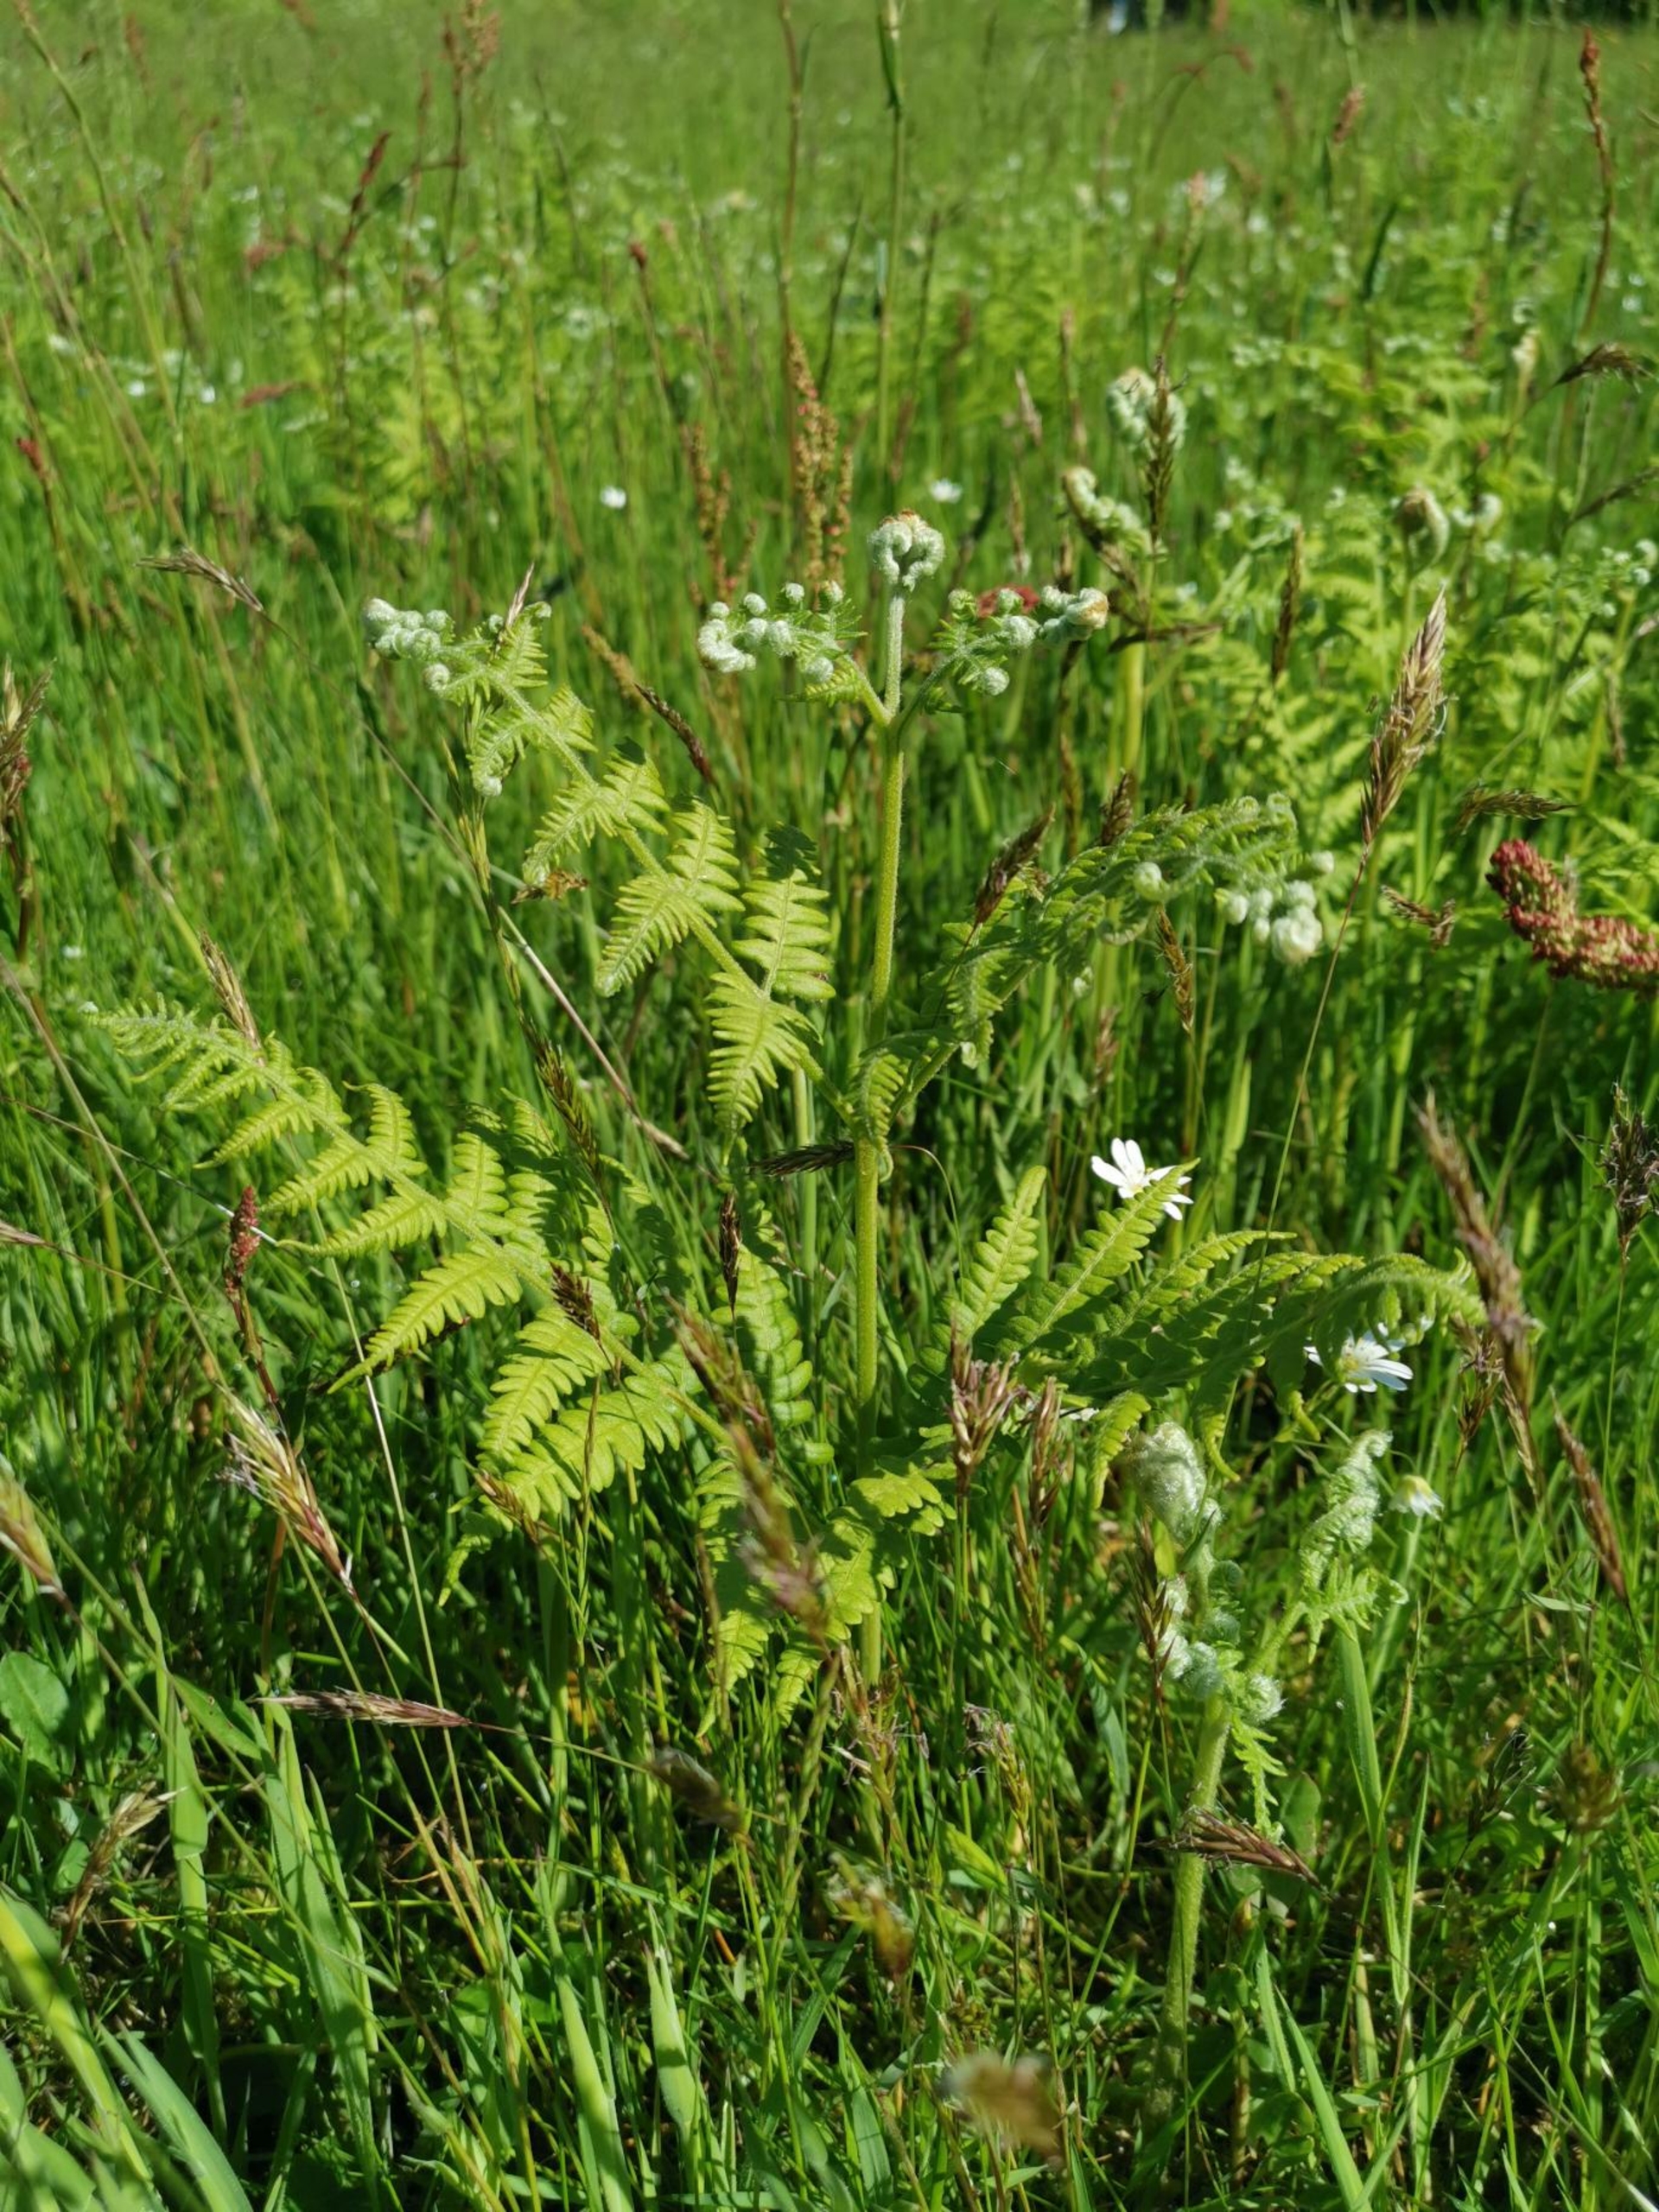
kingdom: Plantae
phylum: Tracheophyta
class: Polypodiopsida
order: Polypodiales
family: Dennstaedtiaceae
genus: Pteridium
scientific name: Pteridium
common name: Ørnebregneslægten
